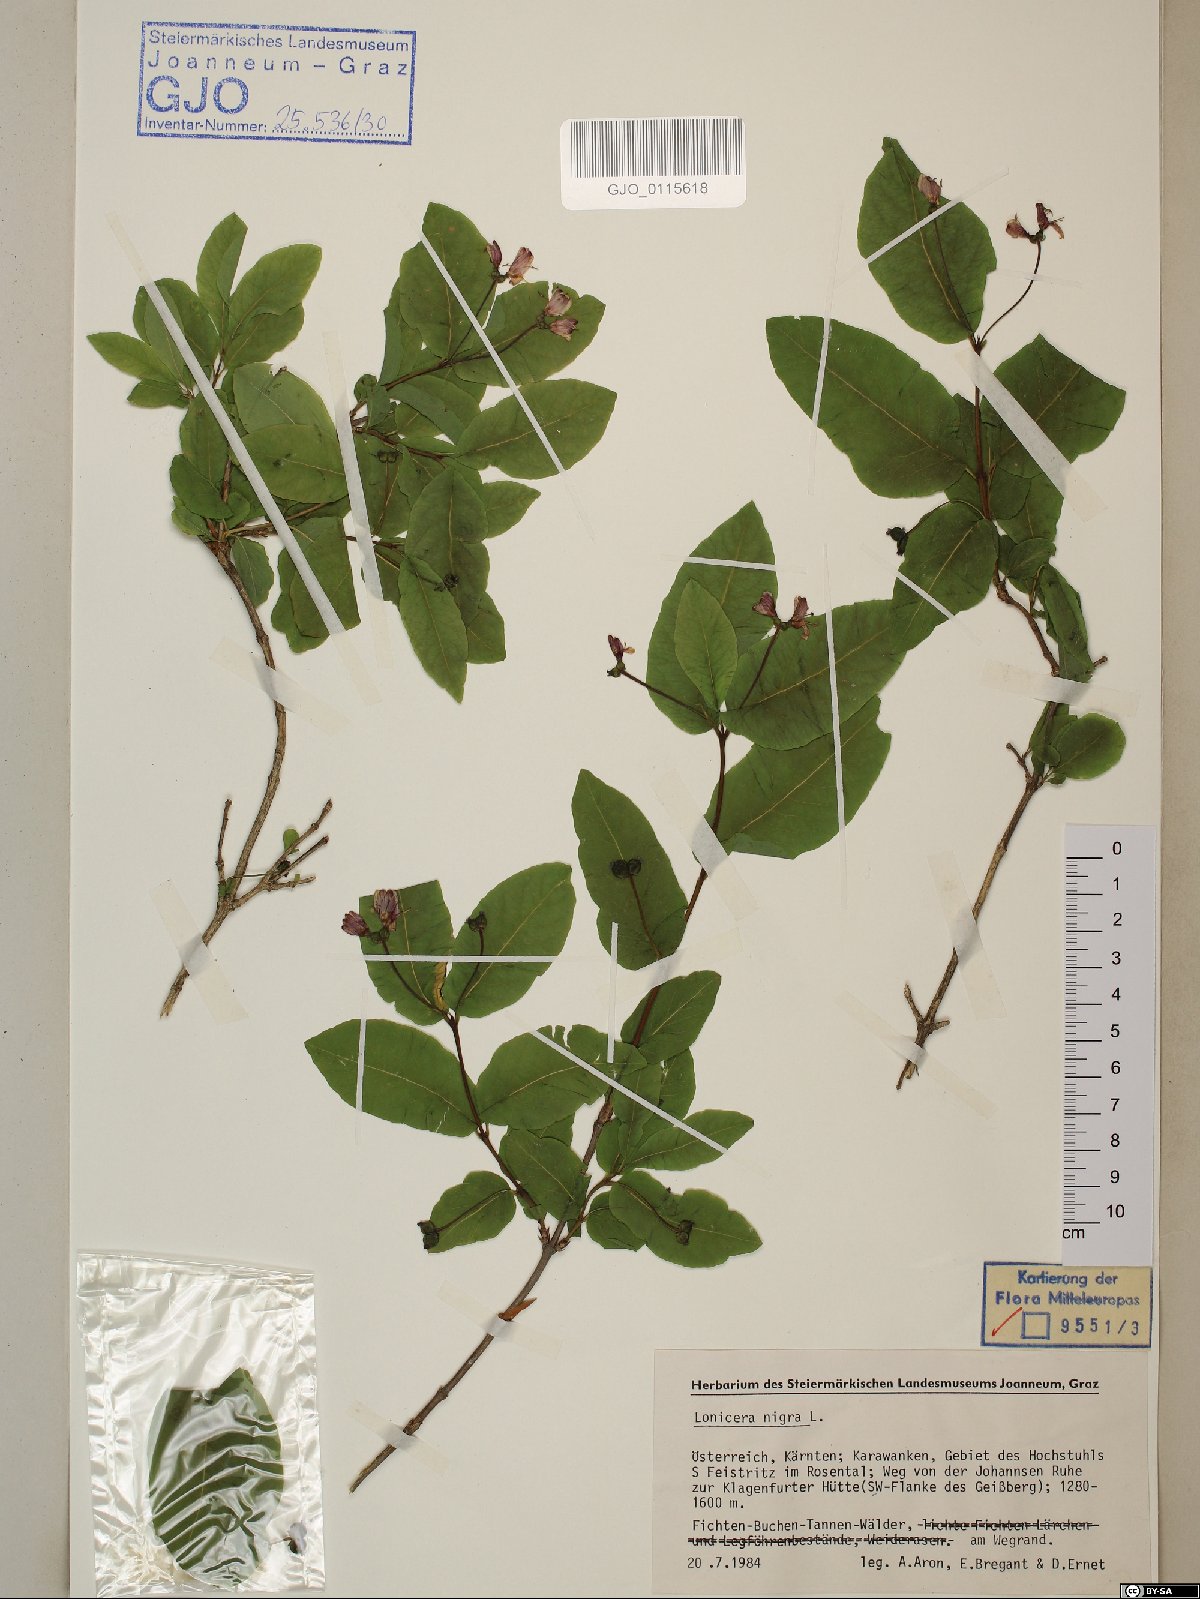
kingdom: Plantae
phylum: Tracheophyta
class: Magnoliopsida
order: Dipsacales
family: Caprifoliaceae
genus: Lonicera
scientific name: Lonicera nigra
